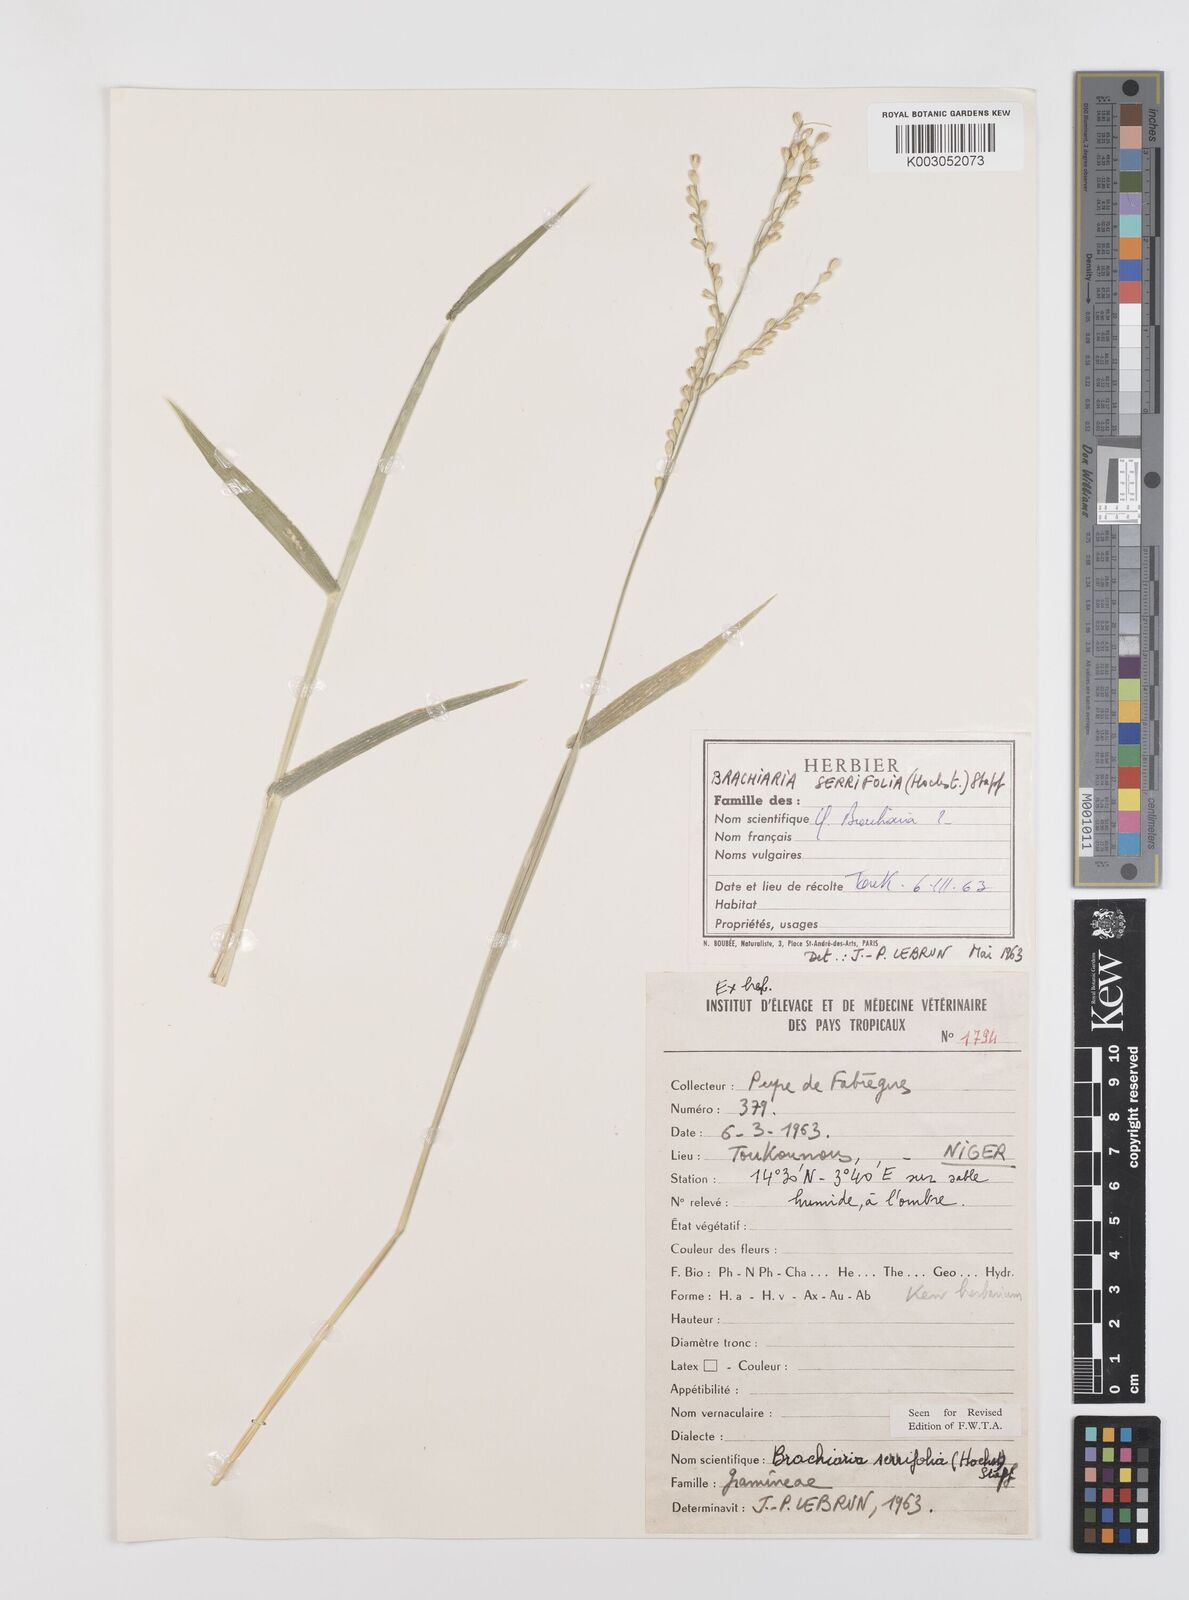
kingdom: Plantae
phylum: Tracheophyta
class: Liliopsida
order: Poales
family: Poaceae
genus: Urochloa
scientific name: Urochloa serrifolia
